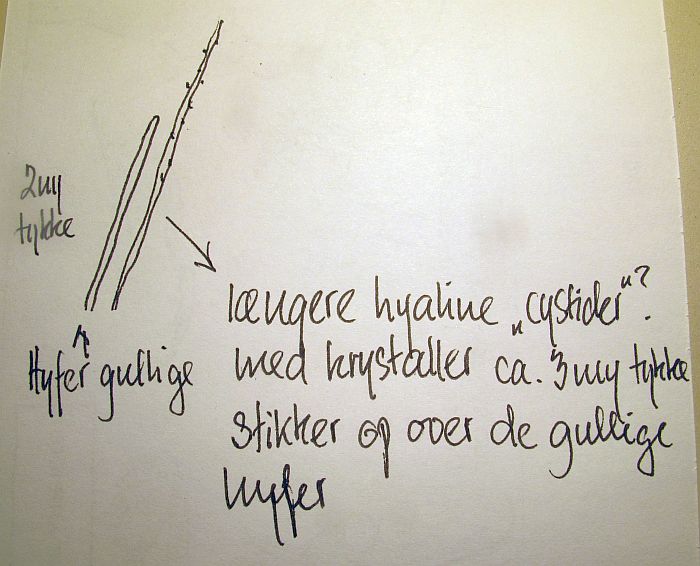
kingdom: Fungi
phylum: Basidiomycota
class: Agaricomycetes
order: Hymenochaetales
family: Hymenochaetaceae
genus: Fuscoporia
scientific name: Fuscoporia ferrea
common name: skorpe-ildporesvamp
